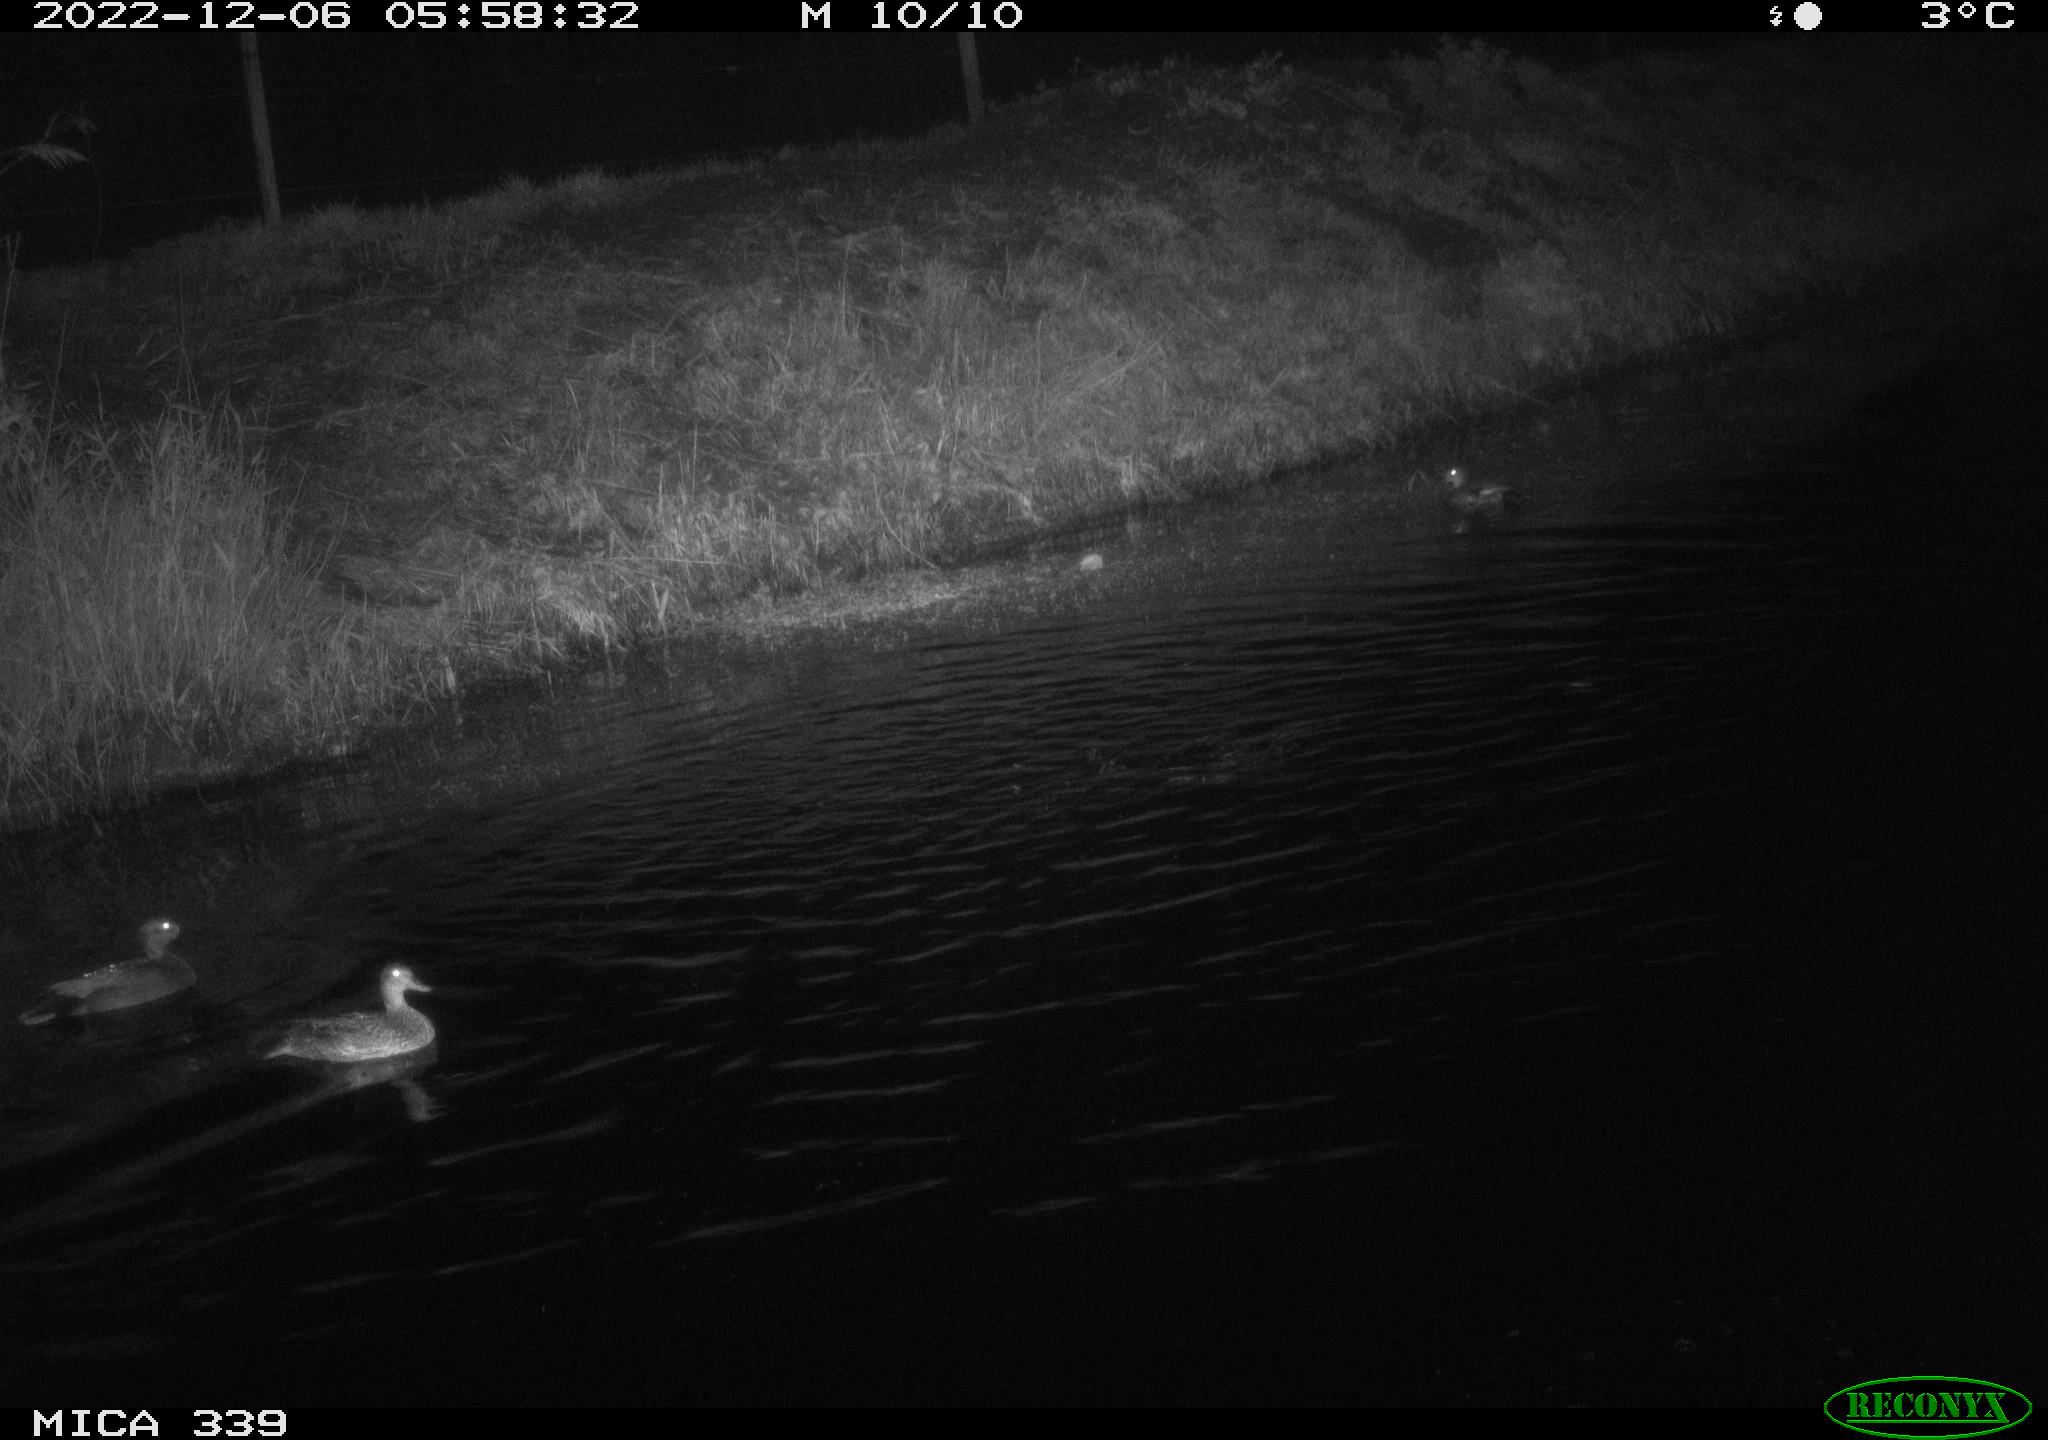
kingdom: Animalia
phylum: Chordata
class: Aves
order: Anseriformes
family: Anatidae
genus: Anas
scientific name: Anas
